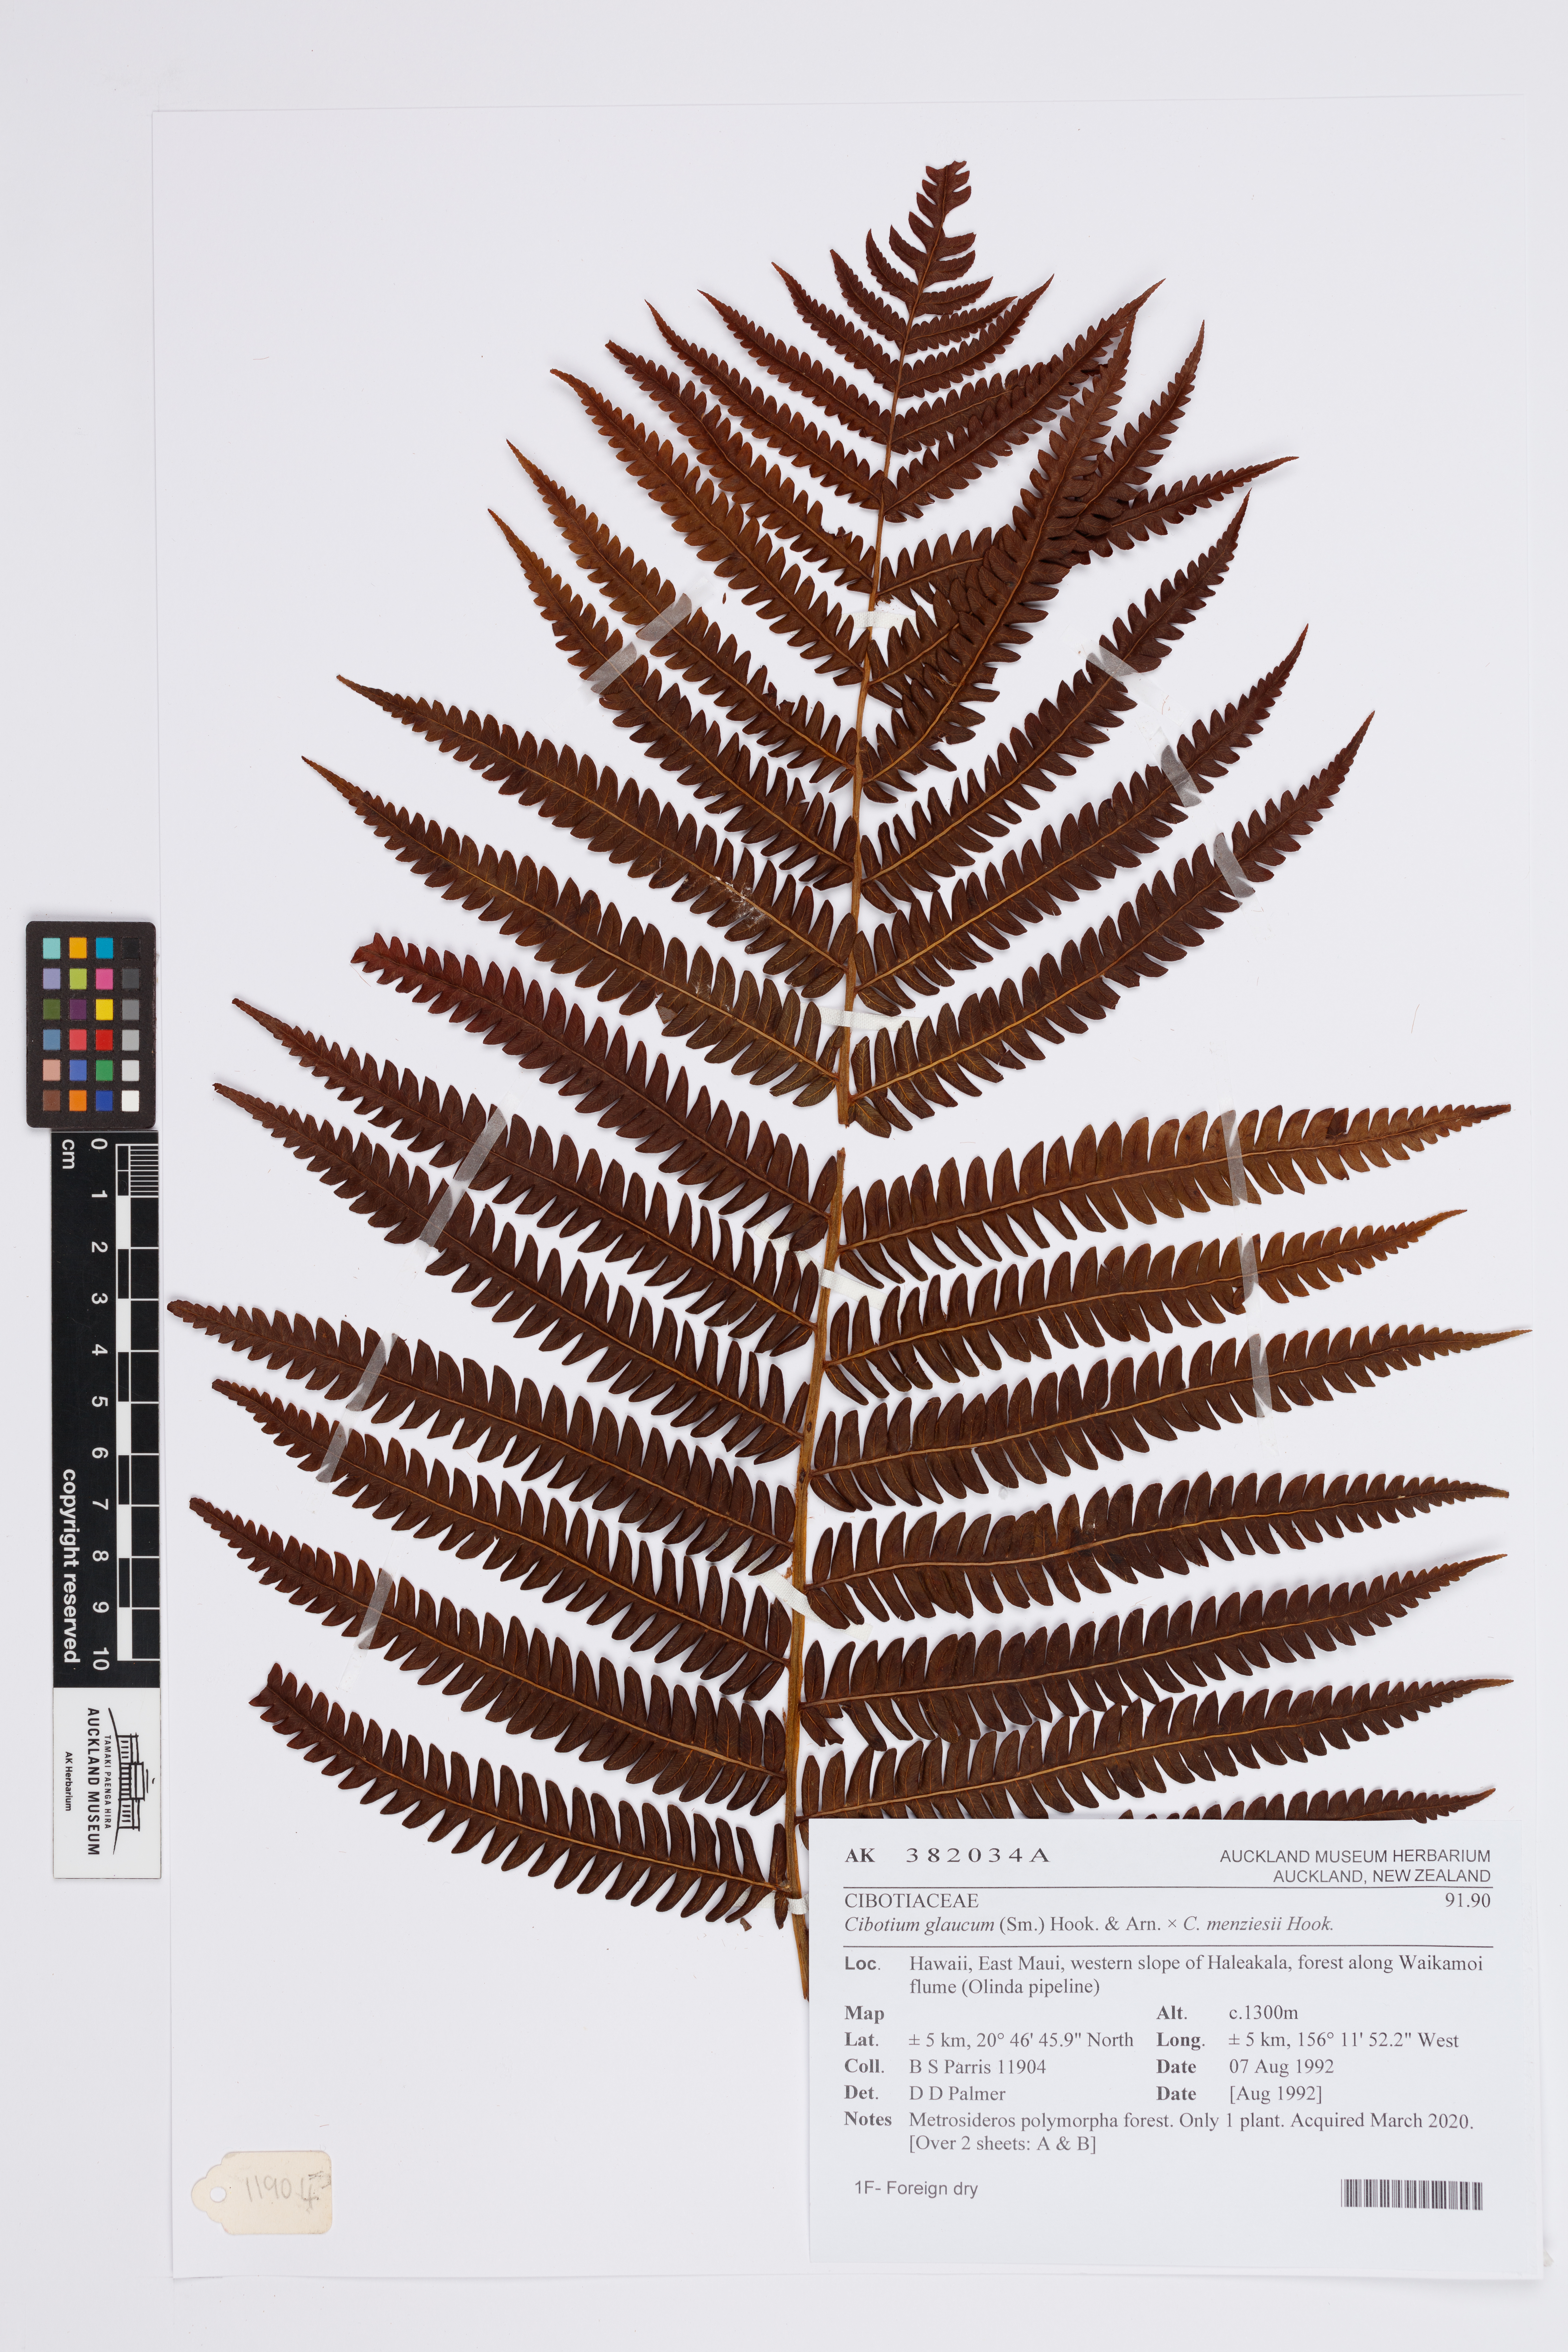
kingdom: Plantae
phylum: Tracheophyta
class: Polypodiopsida
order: Cyatheales
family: Cibotiaceae
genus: Cibotium
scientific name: Cibotium
